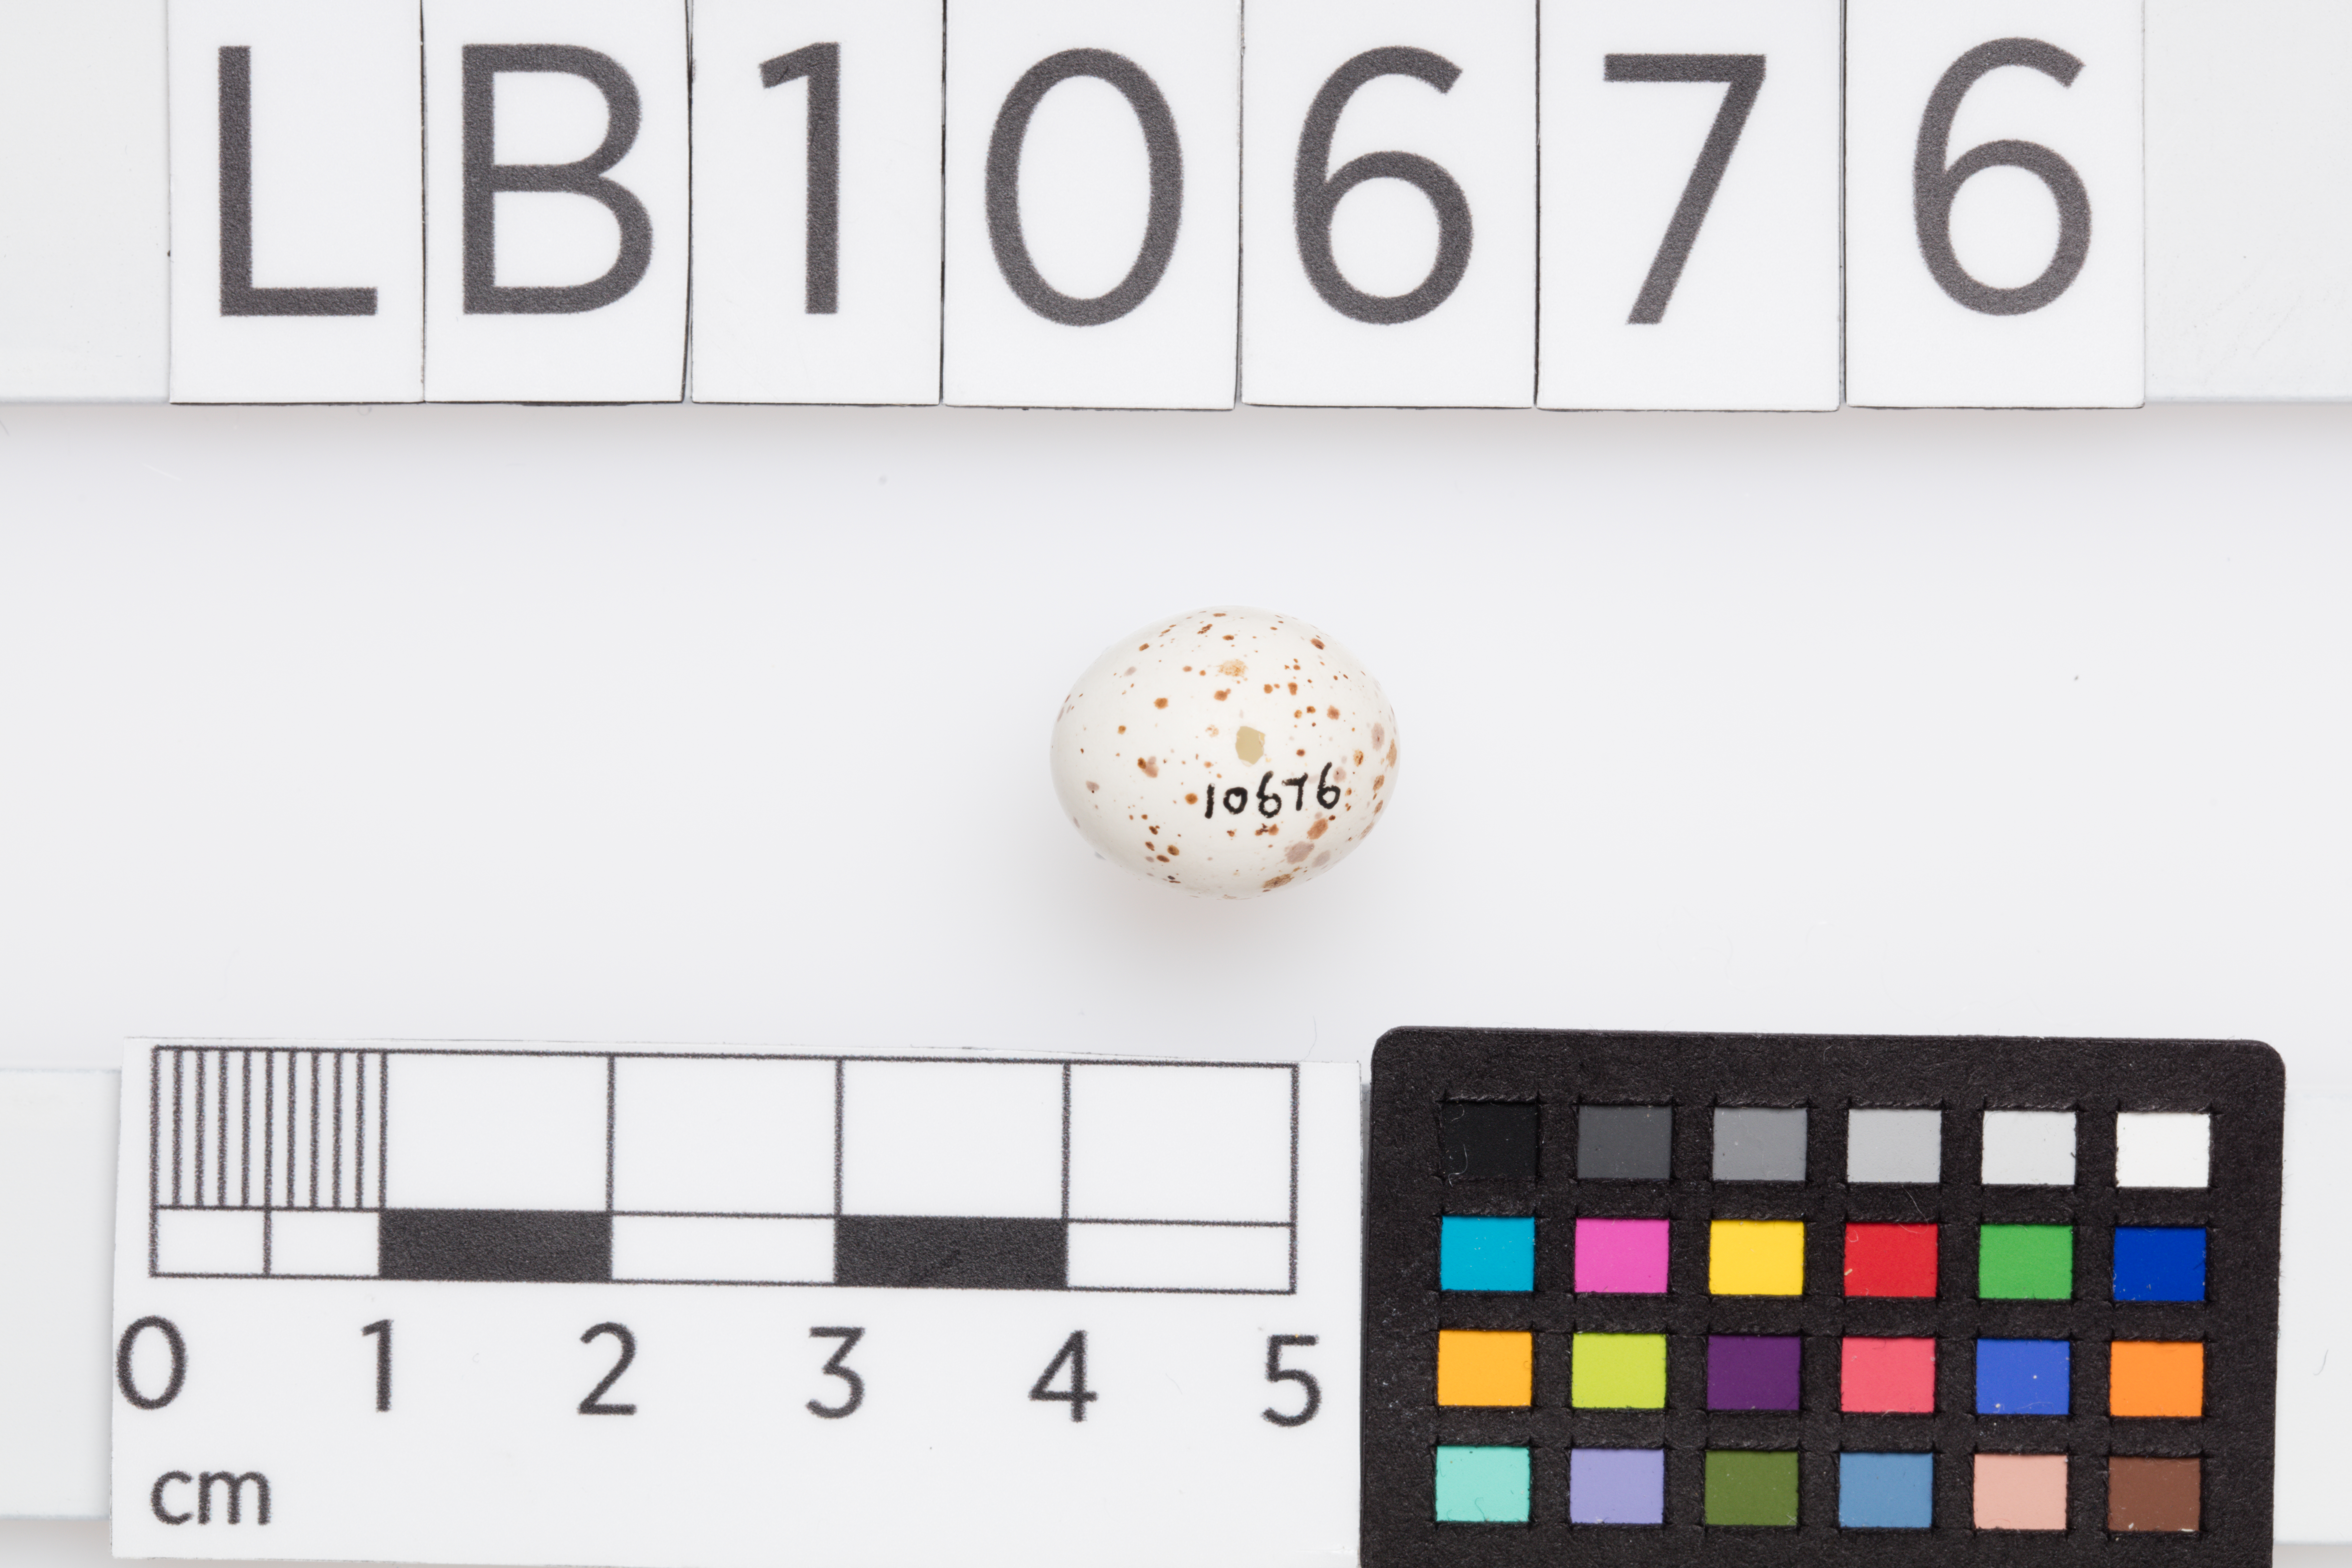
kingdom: Animalia
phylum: Chordata
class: Aves
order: Passeriformes
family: Phylloscopidae
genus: Phylloscopus
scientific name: Phylloscopus collybita
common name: Common chiffchaff
